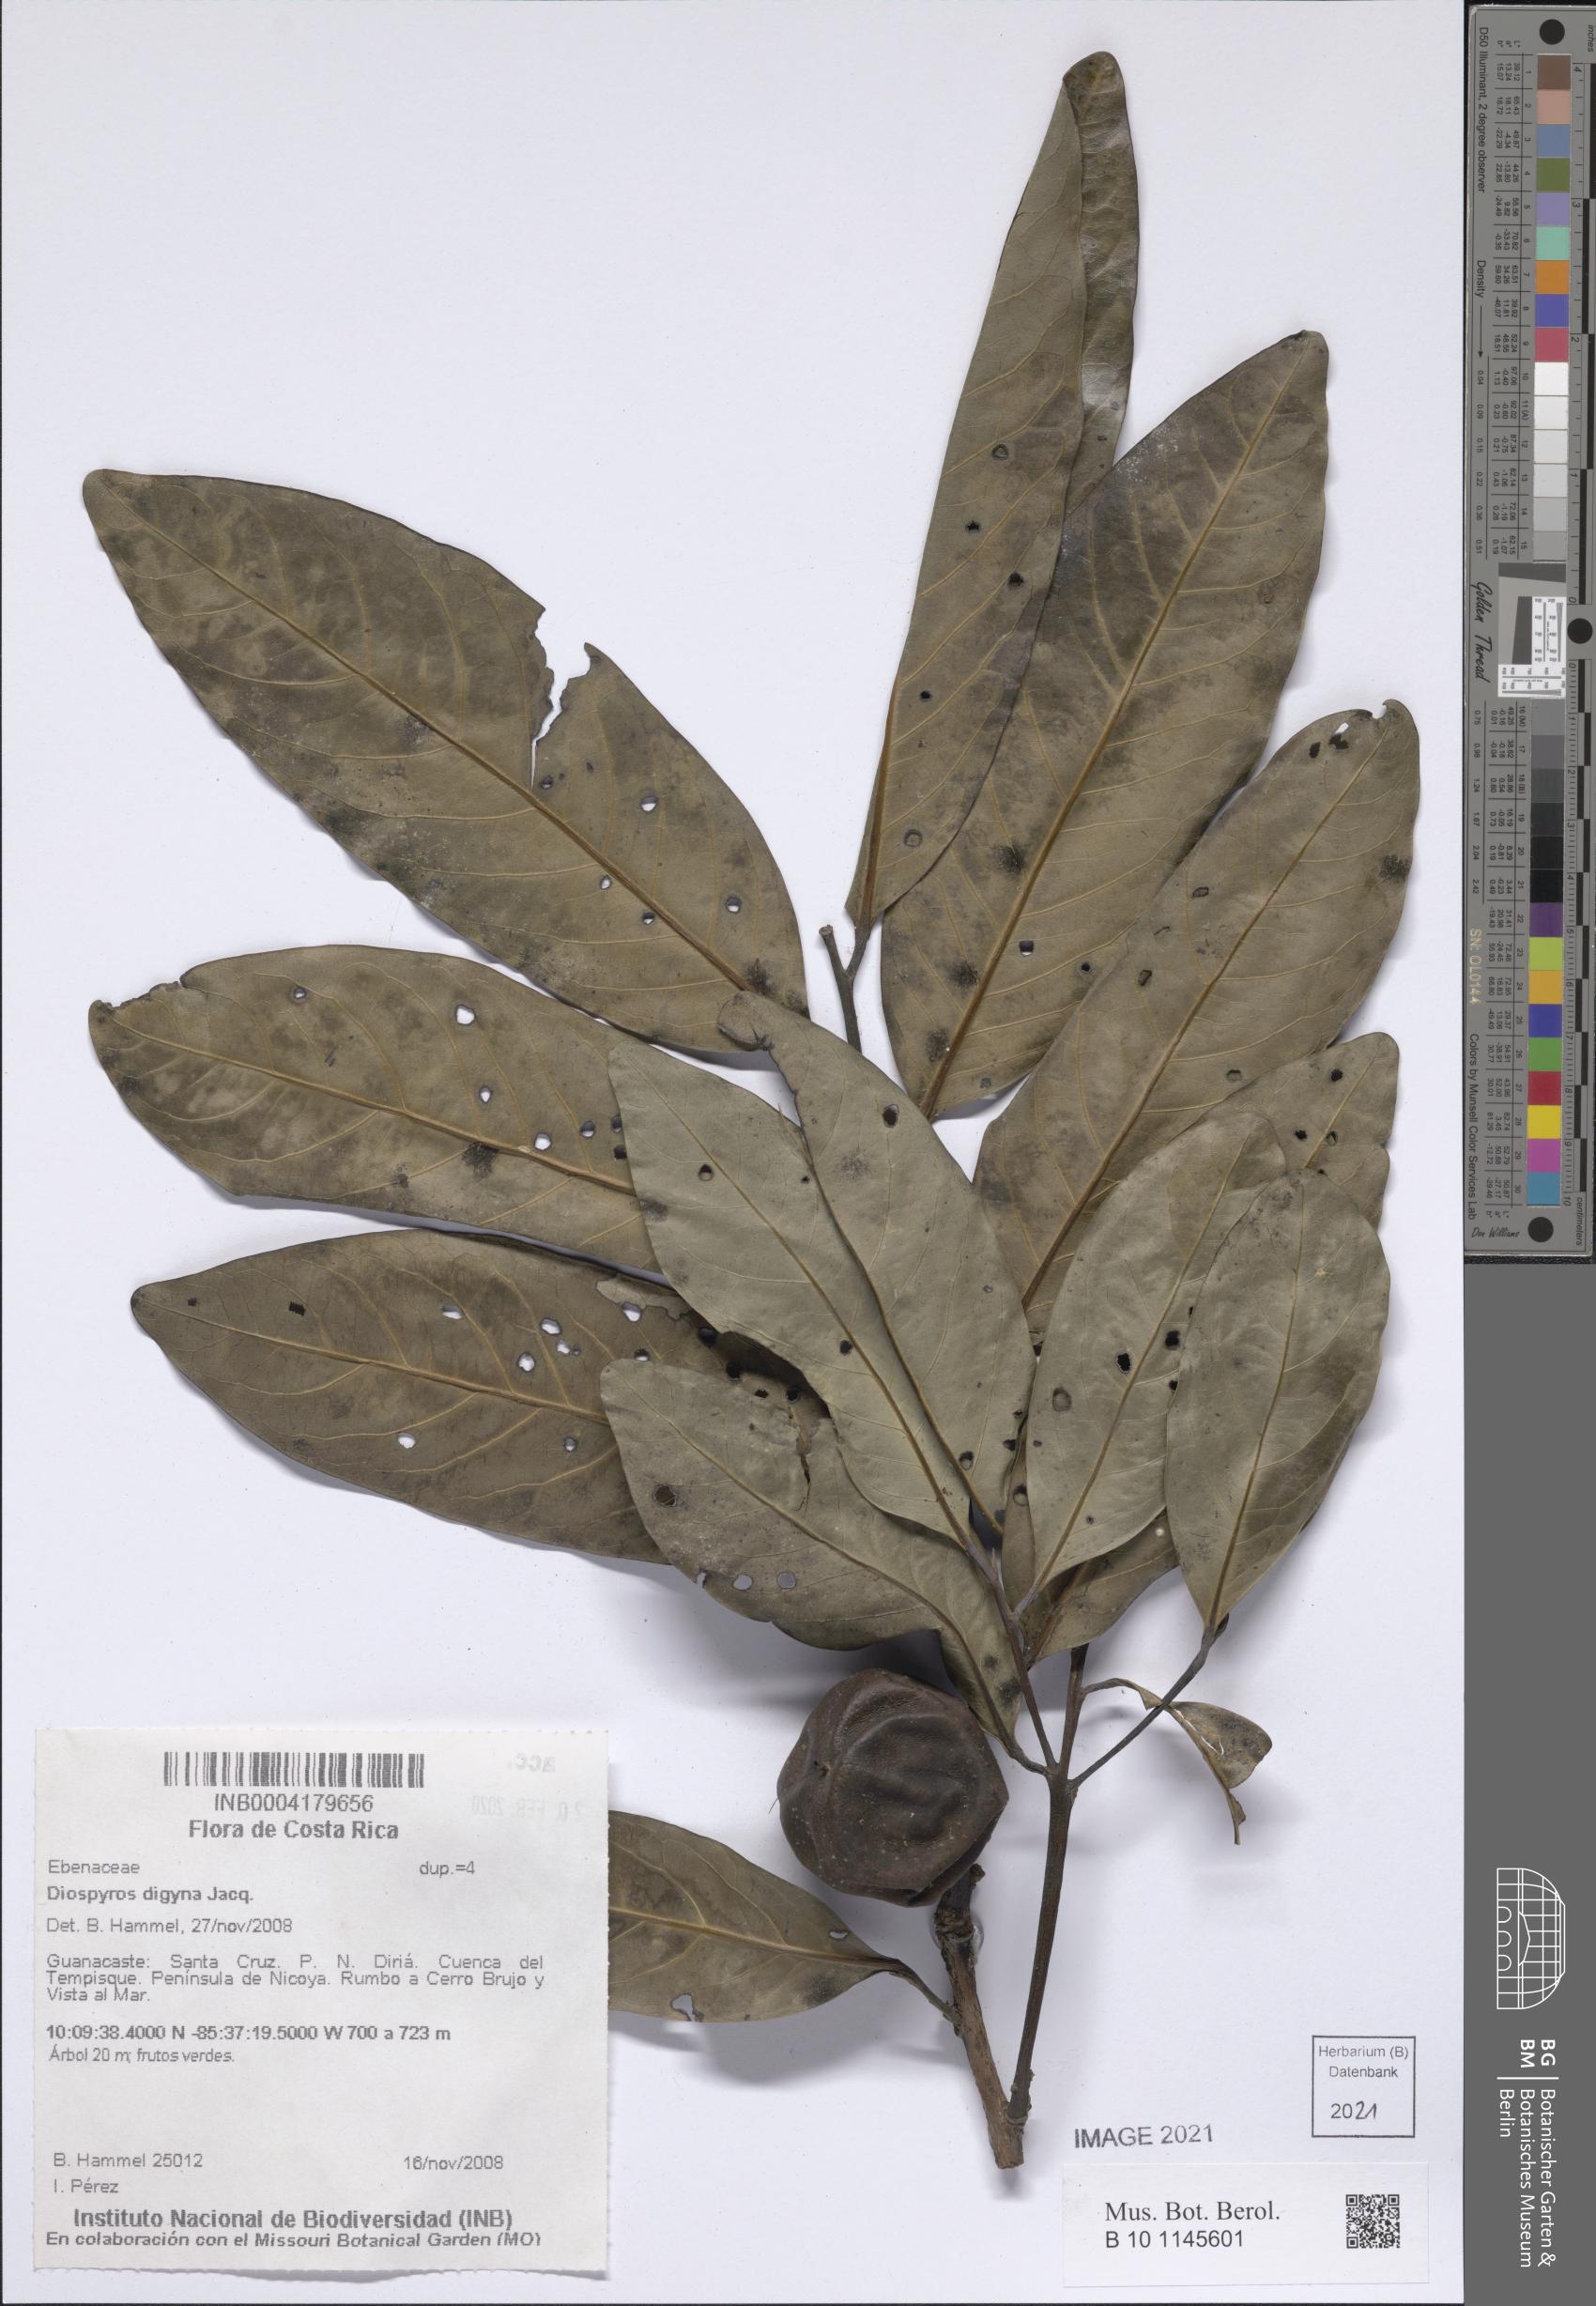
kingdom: Plantae
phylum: Tracheophyta
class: Magnoliopsida
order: Ericales
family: Ebenaceae
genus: Diospyros
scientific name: Diospyros nigra
